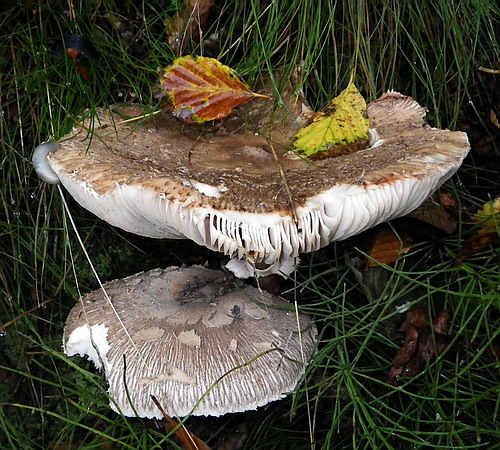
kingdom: Fungi
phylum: Basidiomycota
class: Agaricomycetes
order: Agaricales
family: Agaricaceae
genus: Macrolepiota
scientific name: Macrolepiota fuliginosa
